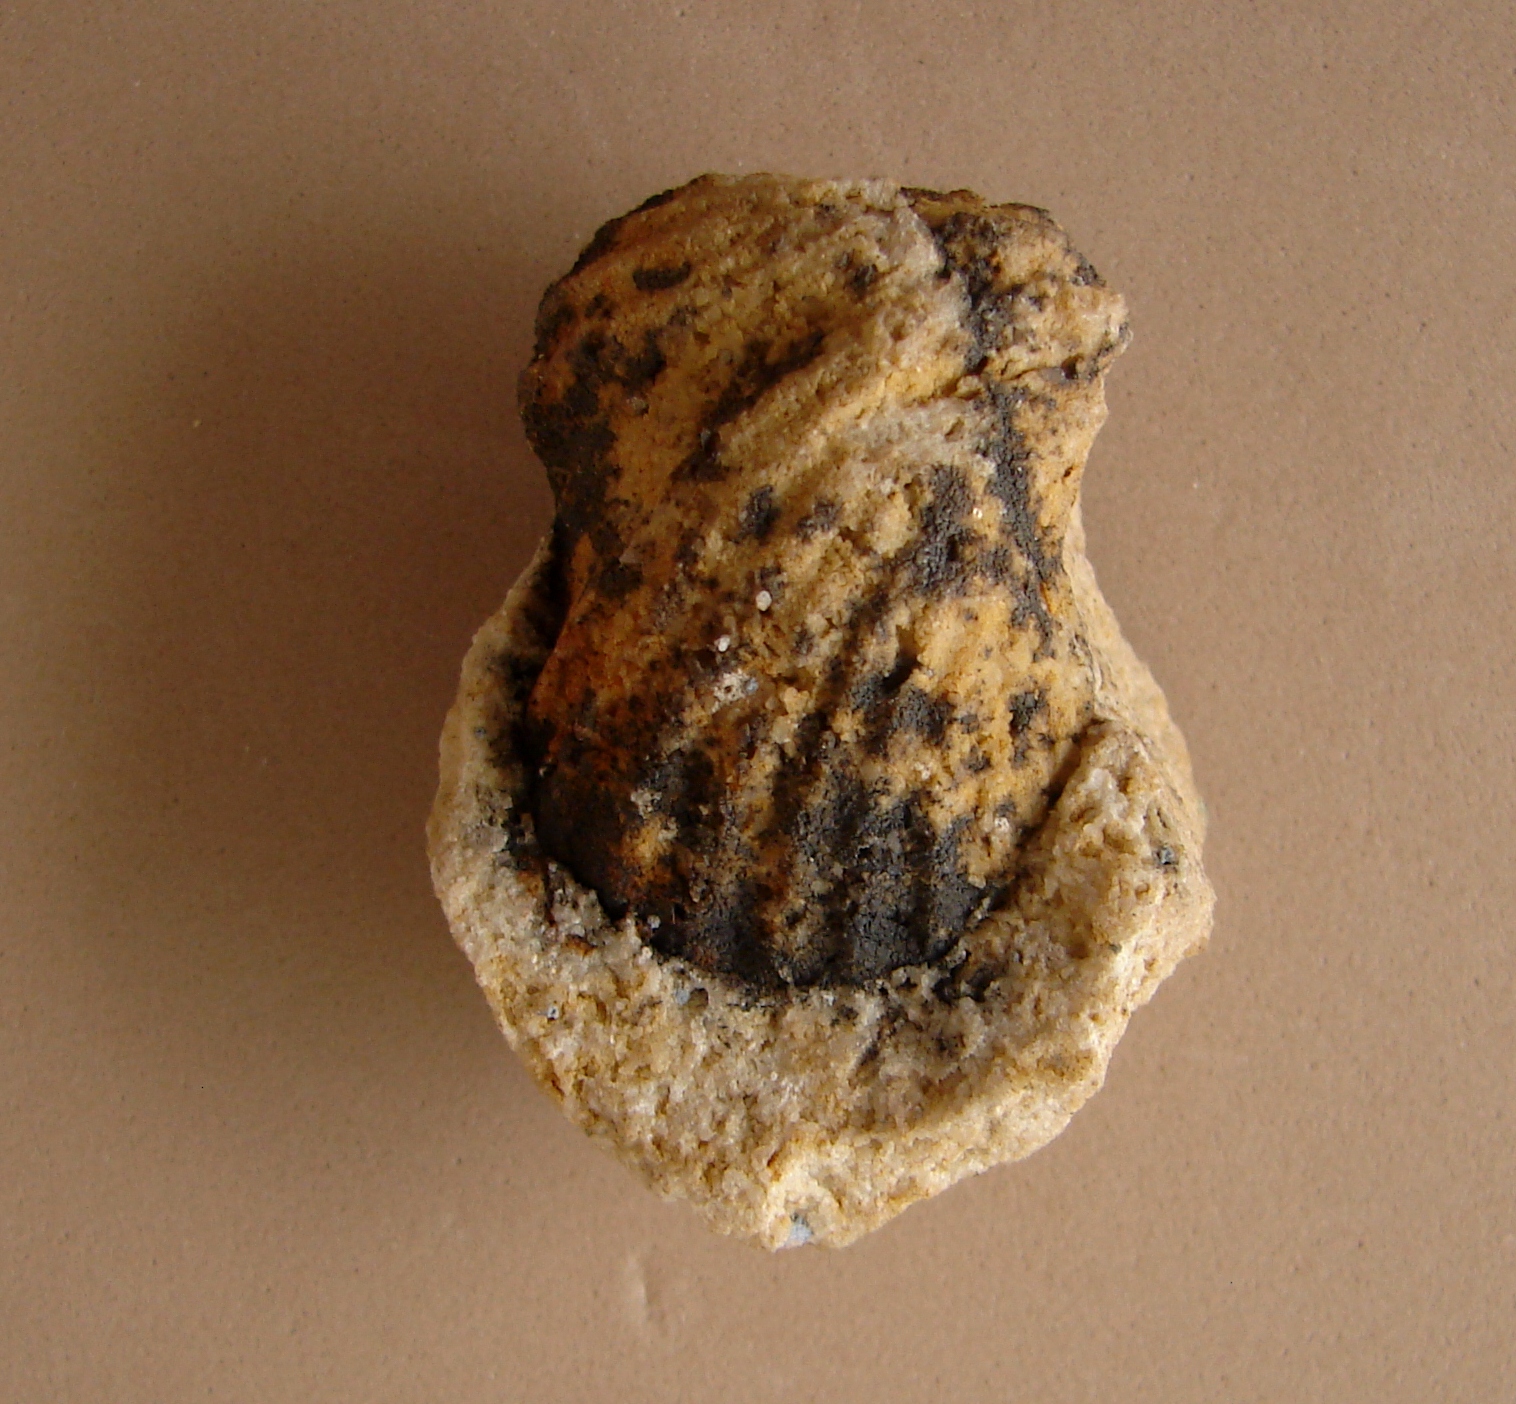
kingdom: Animalia
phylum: Arthropoda
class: Trilobita
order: Phacopida
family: Acastidae
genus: Acastava
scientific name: Acastava
